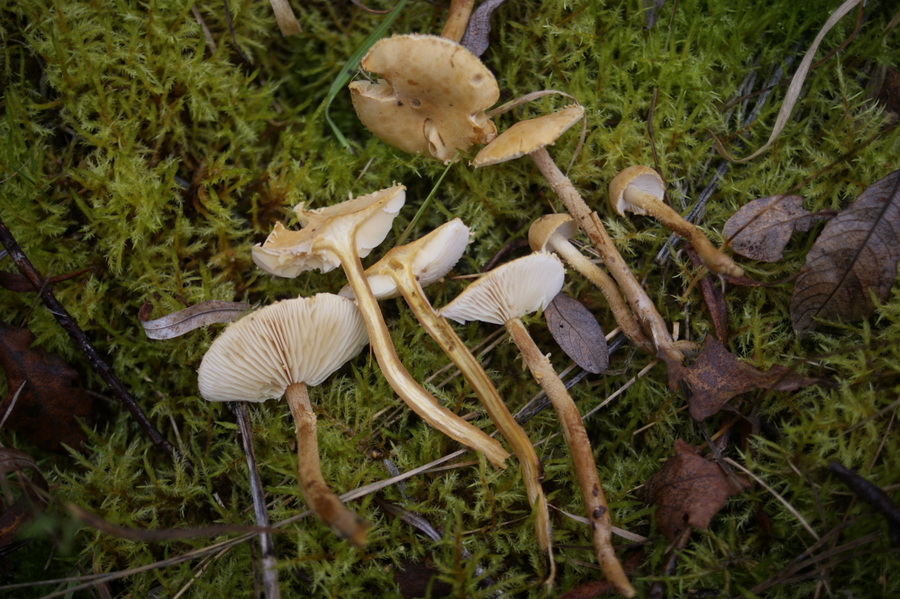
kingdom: Fungi
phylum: Basidiomycota
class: Agaricomycetes
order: Agaricales
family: Tricholomataceae
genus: Cystoderma
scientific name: Cystoderma amianthinum
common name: okkergul grynhat
